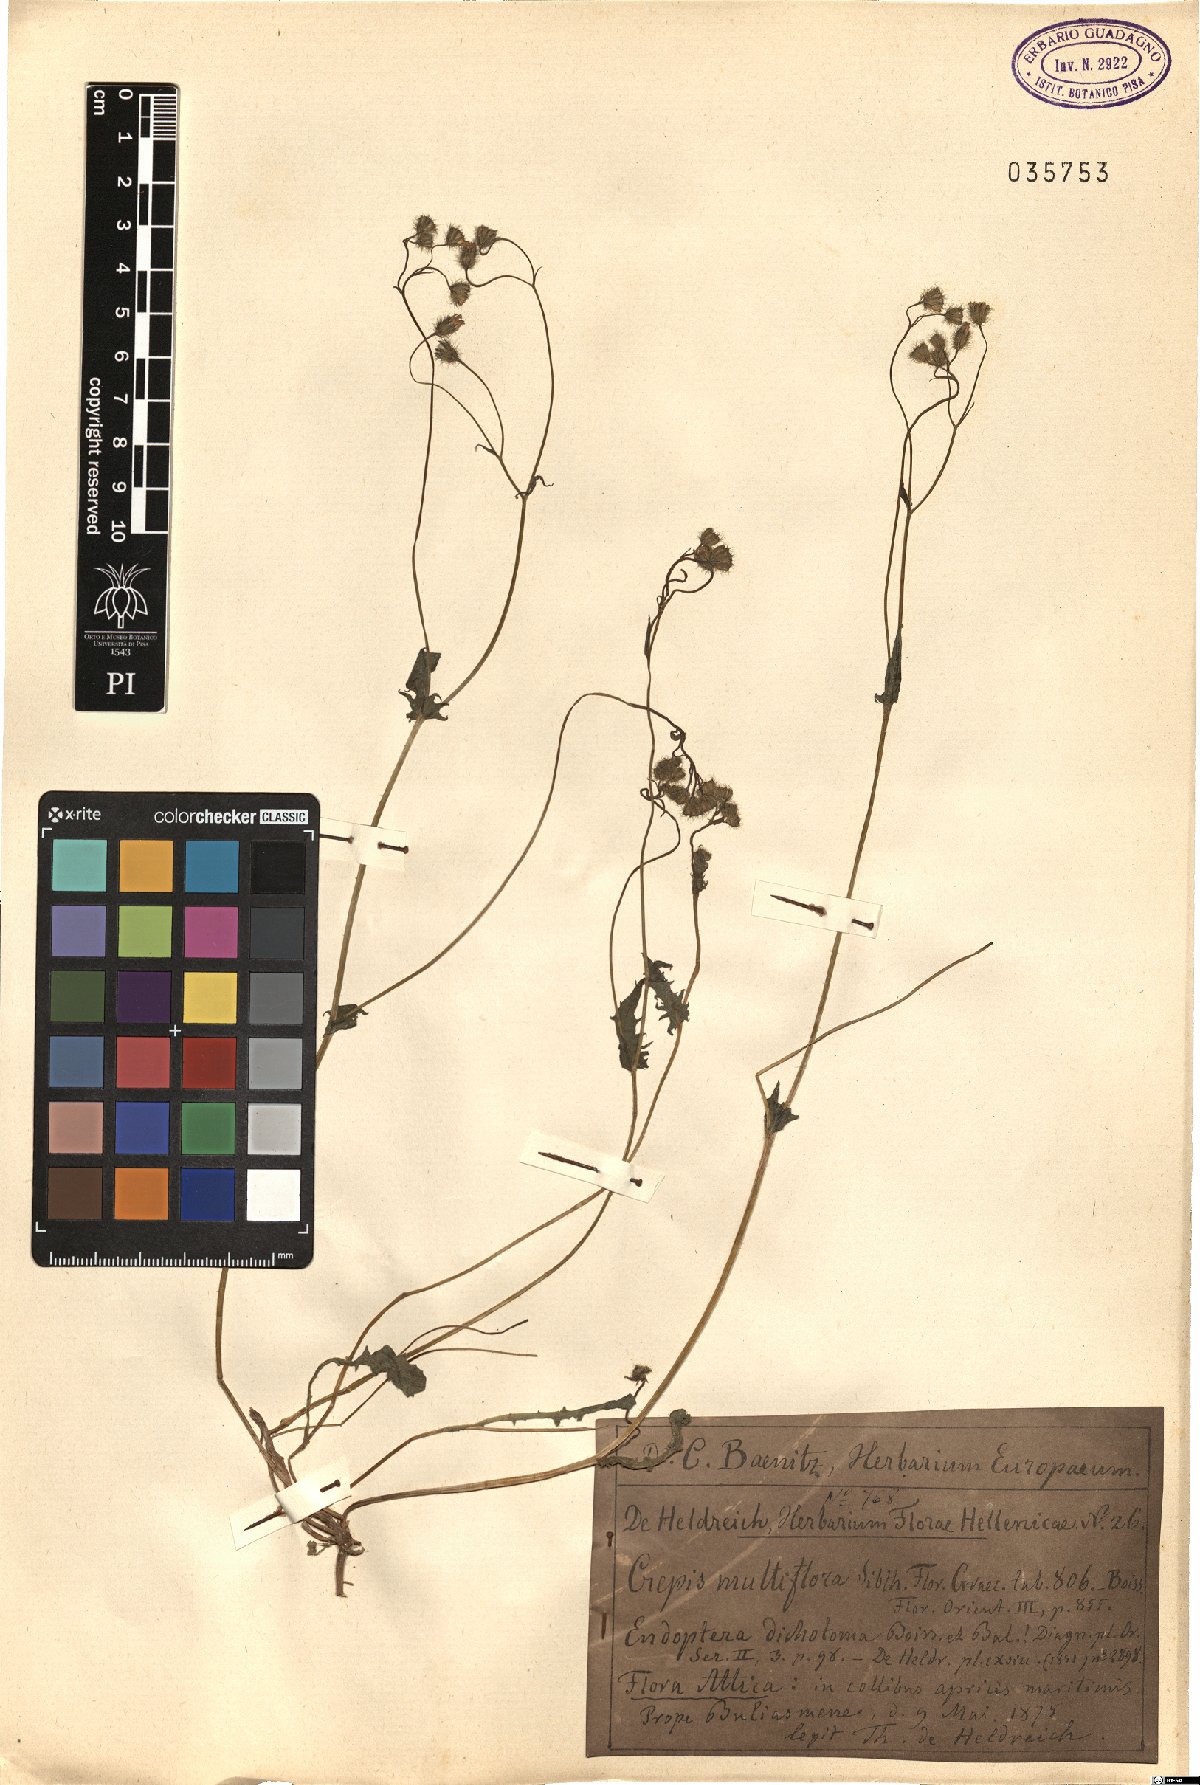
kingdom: Plantae
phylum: Tracheophyta
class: Magnoliopsida
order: Asterales
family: Asteraceae
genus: Crepis
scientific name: Crepis multiflora
